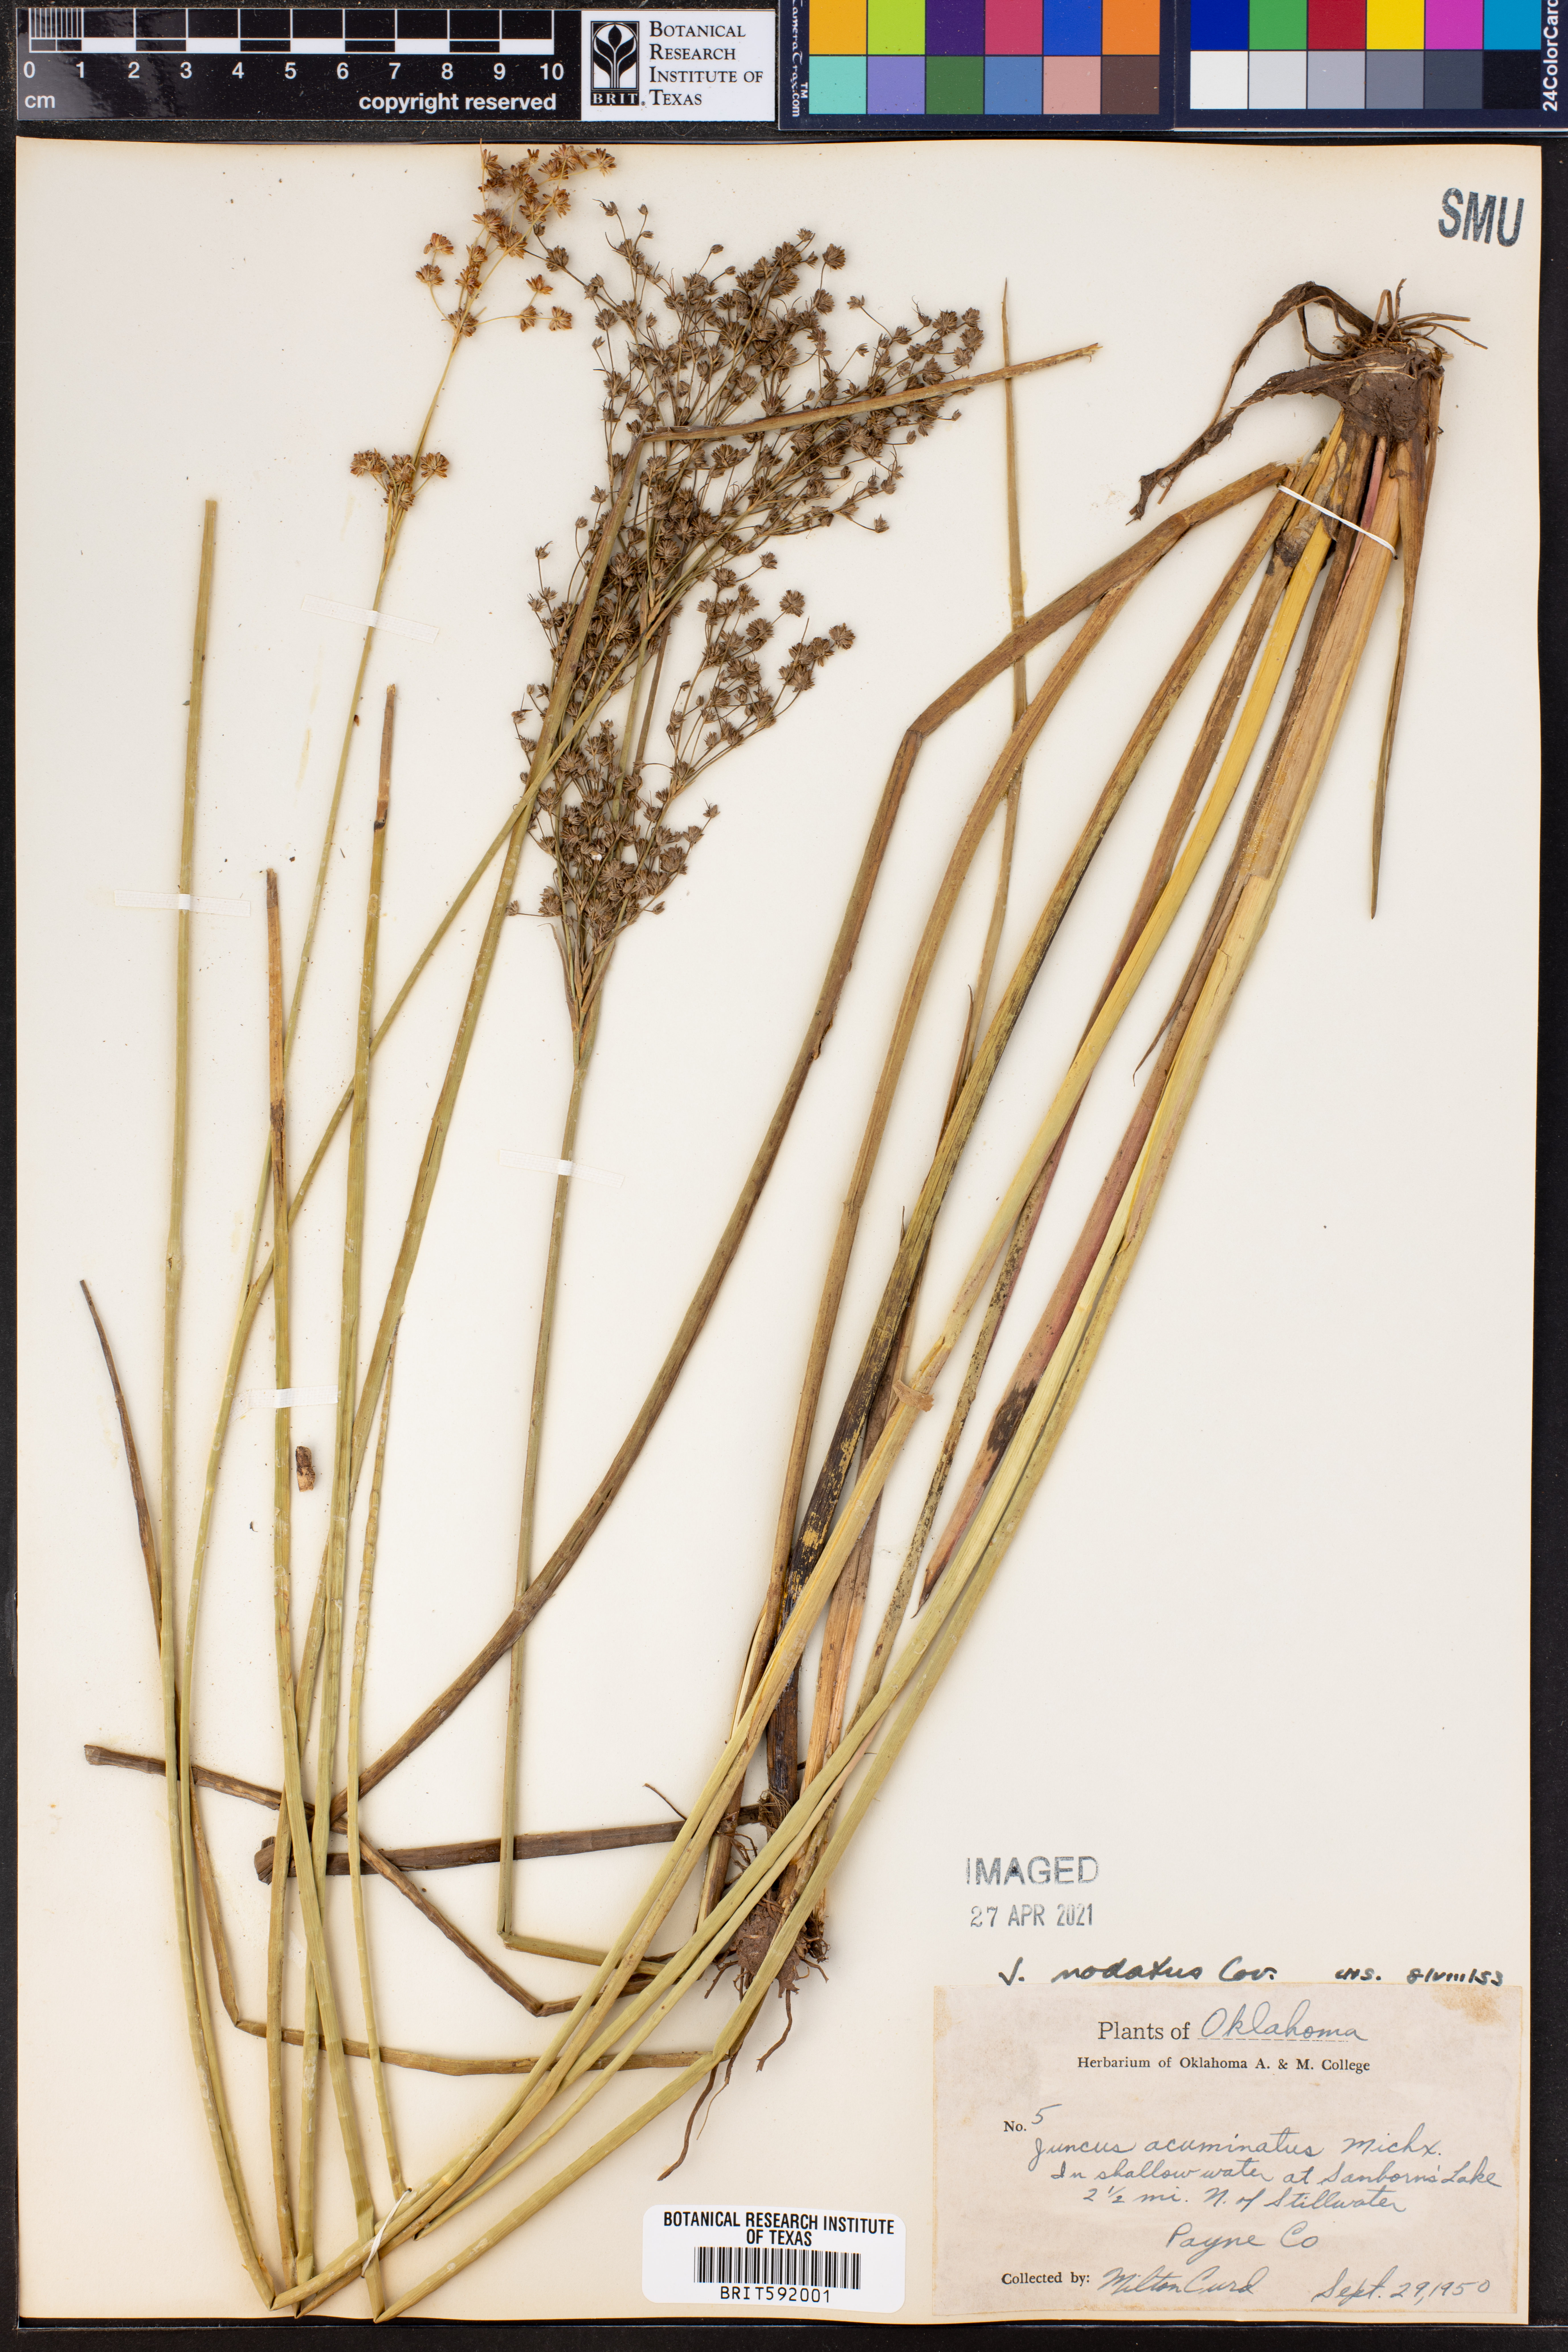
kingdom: Plantae
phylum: Tracheophyta
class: Liliopsida
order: Poales
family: Juncaceae
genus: Juncus
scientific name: Juncus nodatus
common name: Stout rush
